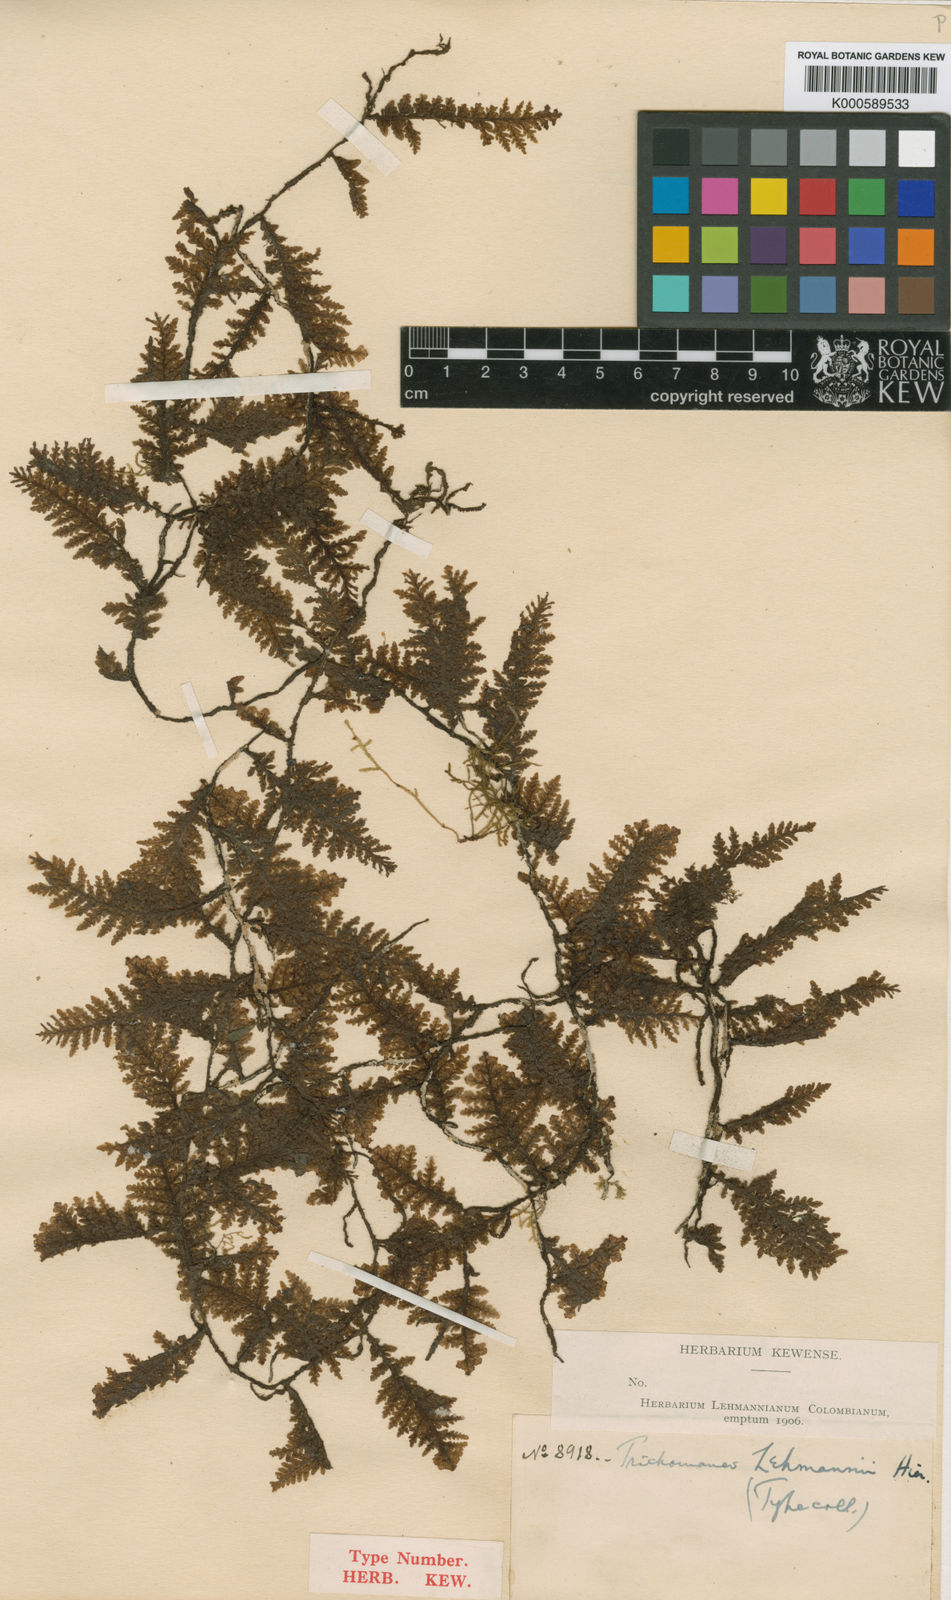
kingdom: Plantae
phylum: Tracheophyta
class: Polypodiopsida
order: Hymenophyllales
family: Hymenophyllaceae
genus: Didymoglossum
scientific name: Didymoglossum lehmannii
